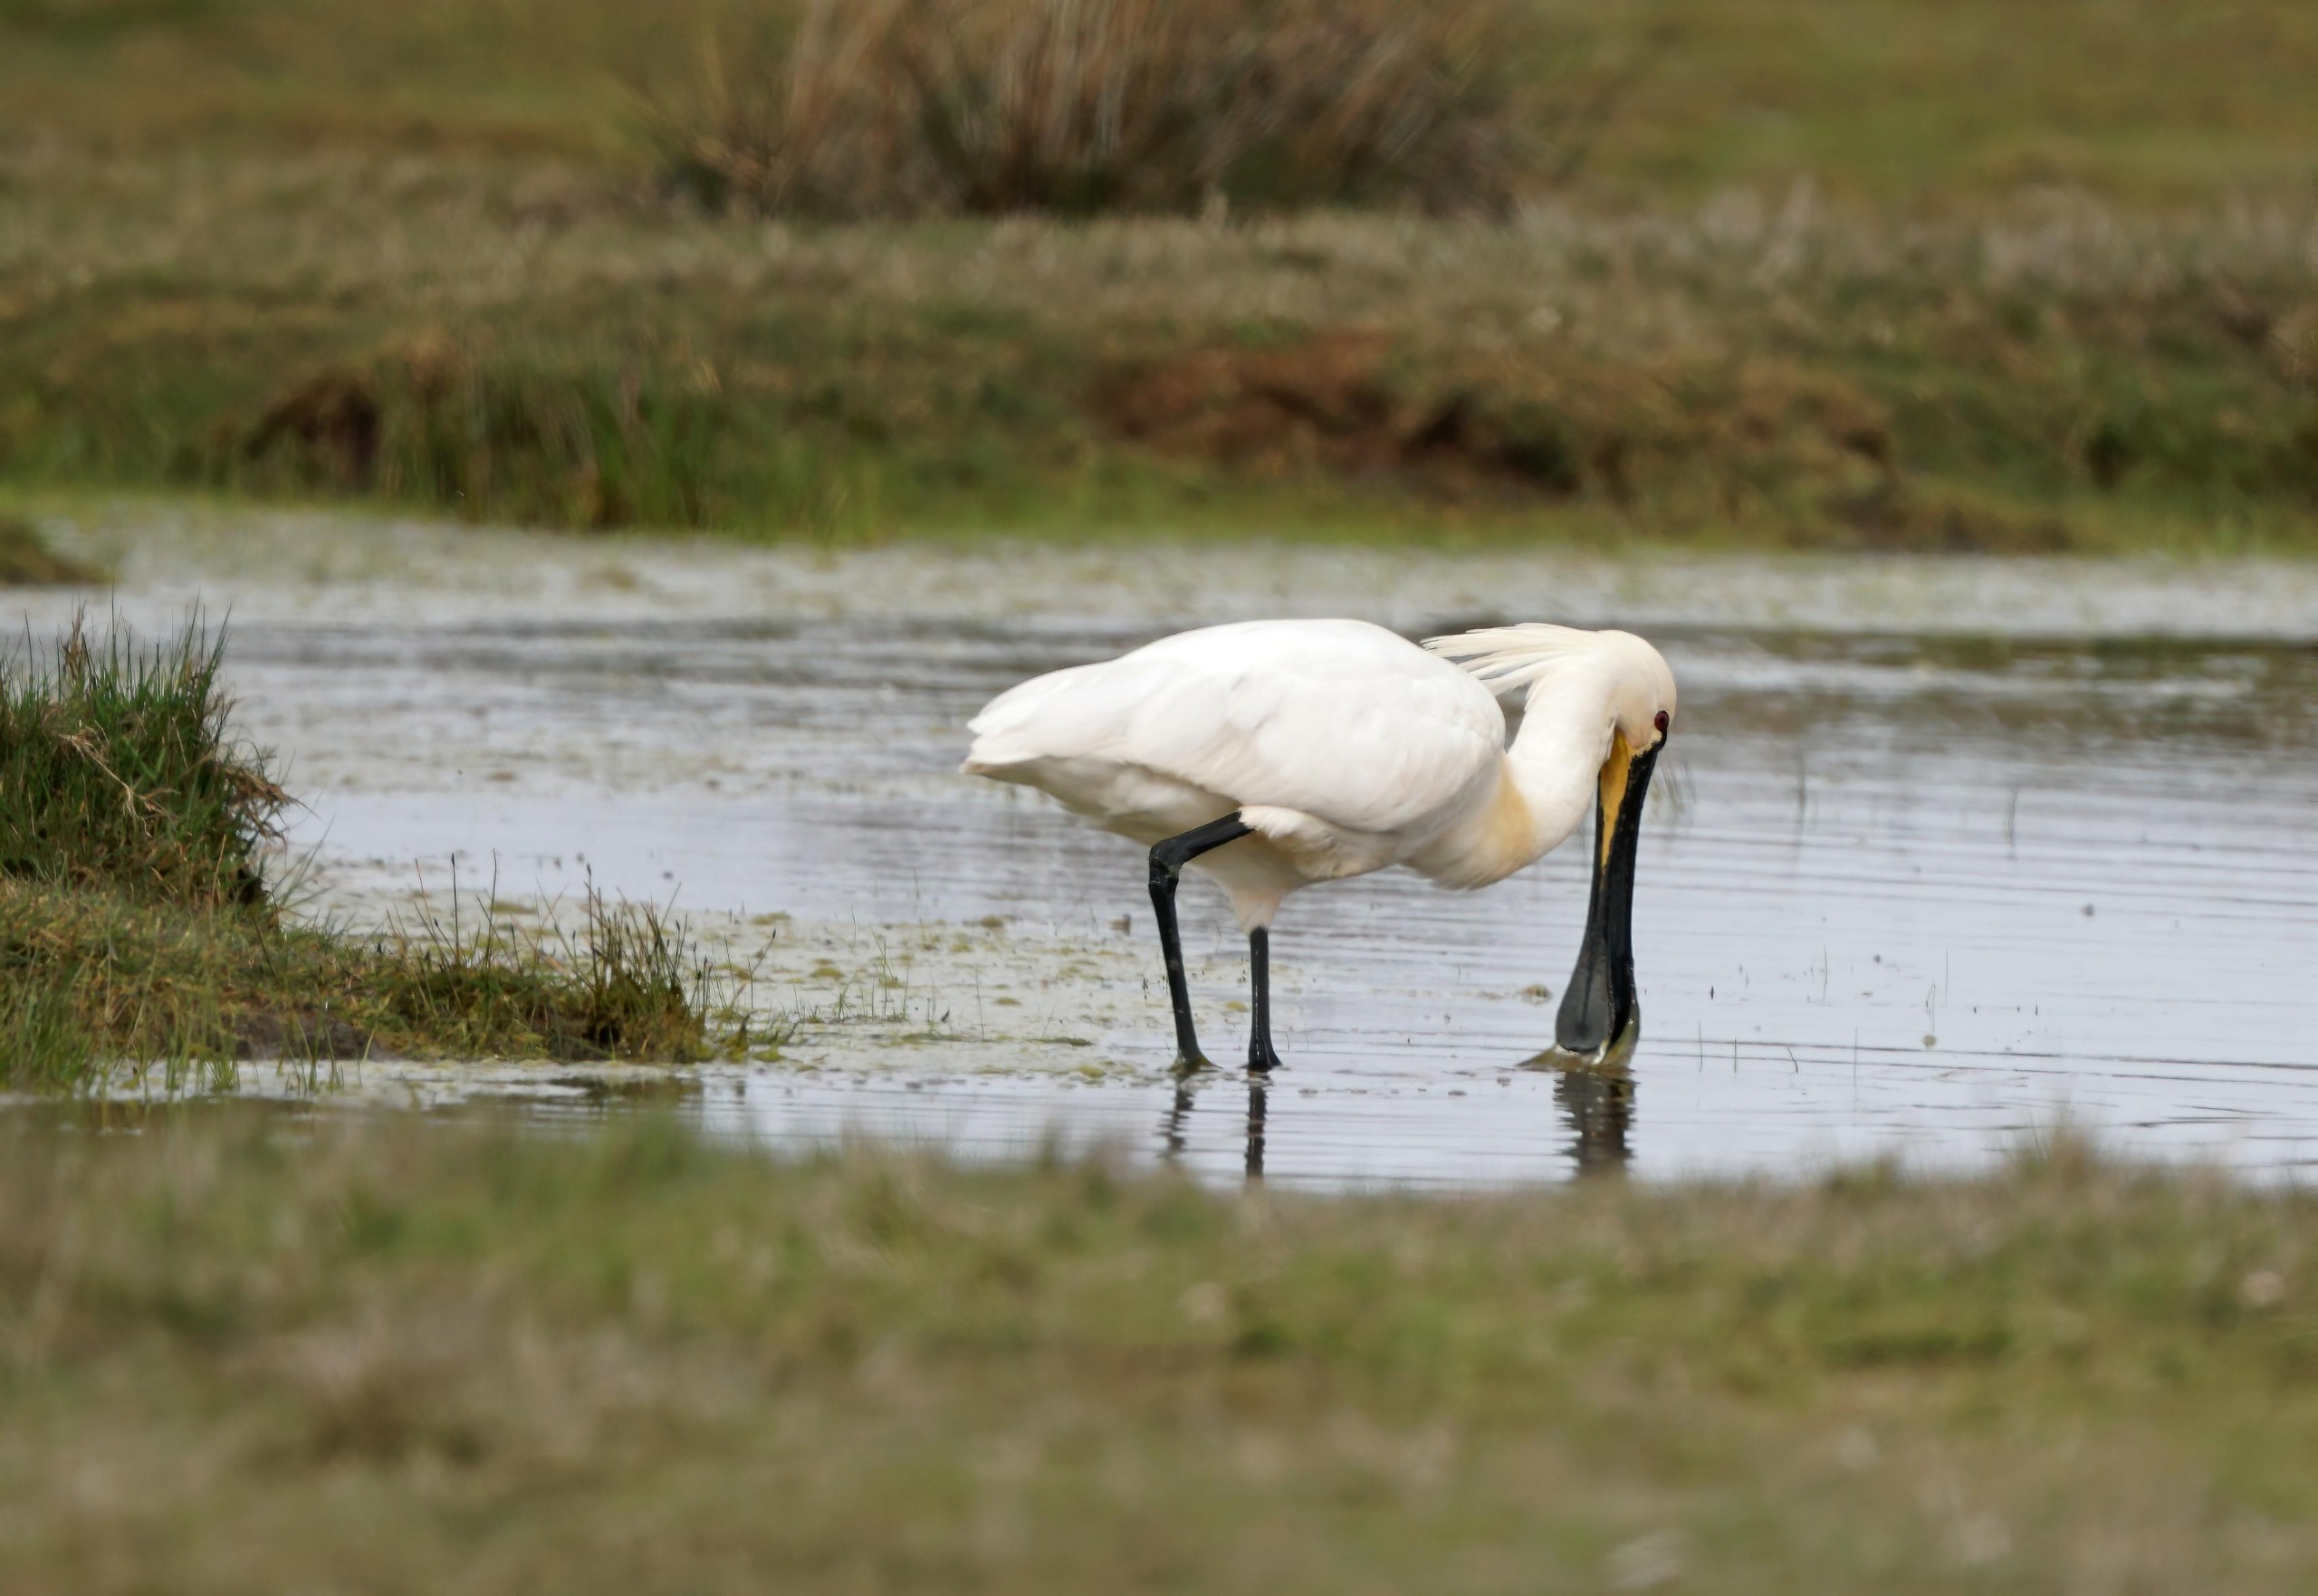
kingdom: Animalia
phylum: Chordata
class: Aves
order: Pelecaniformes
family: Threskiornithidae
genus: Platalea
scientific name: Platalea leucorodia
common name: Skestork
